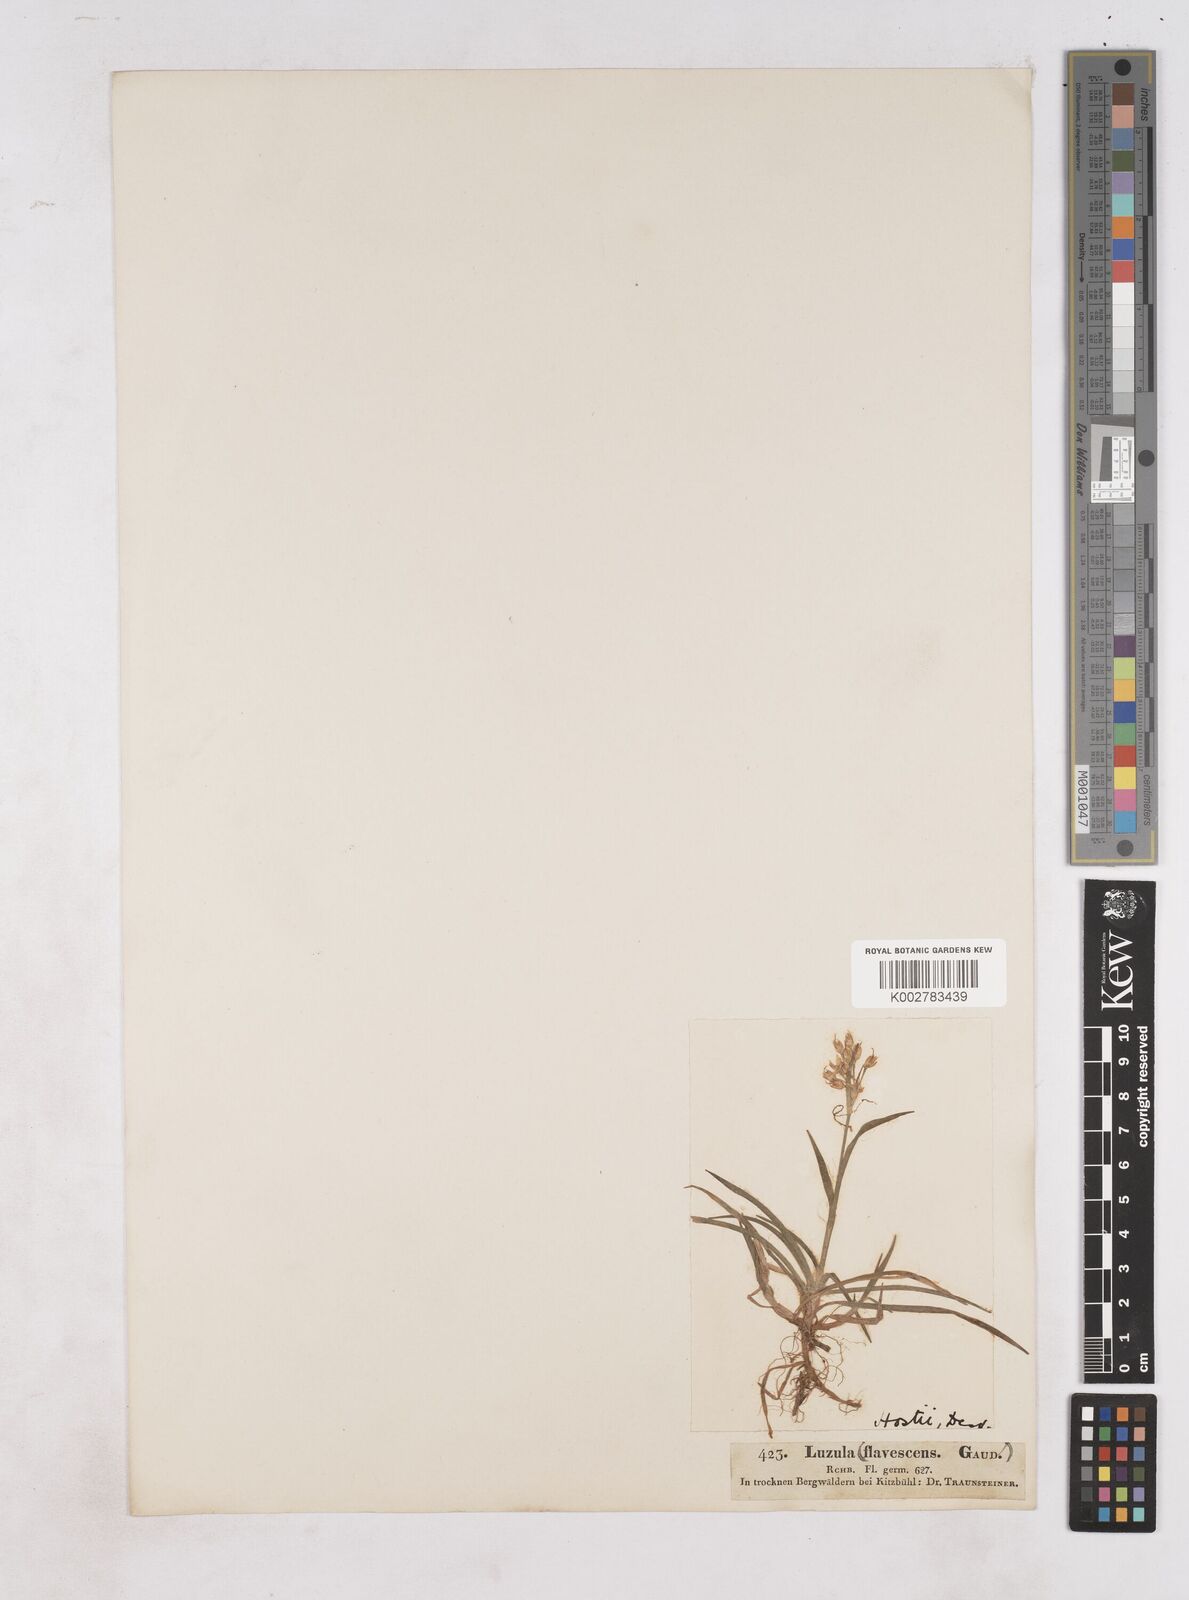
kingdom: Plantae
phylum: Tracheophyta
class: Liliopsida
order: Poales
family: Juncaceae
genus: Luzula
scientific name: Luzula luzulina
